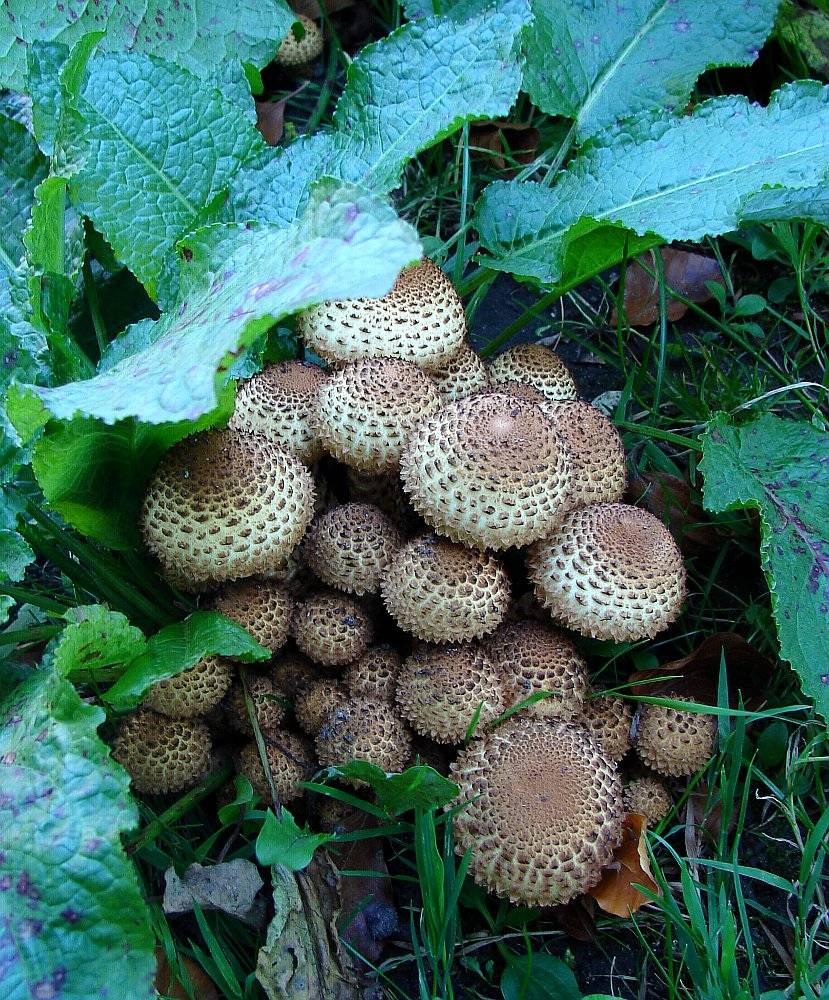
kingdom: Fungi
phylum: Basidiomycota
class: Agaricomycetes
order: Agaricales
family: Strophariaceae
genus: Pholiota
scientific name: Pholiota squarrosa
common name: krumskællet skælhat
